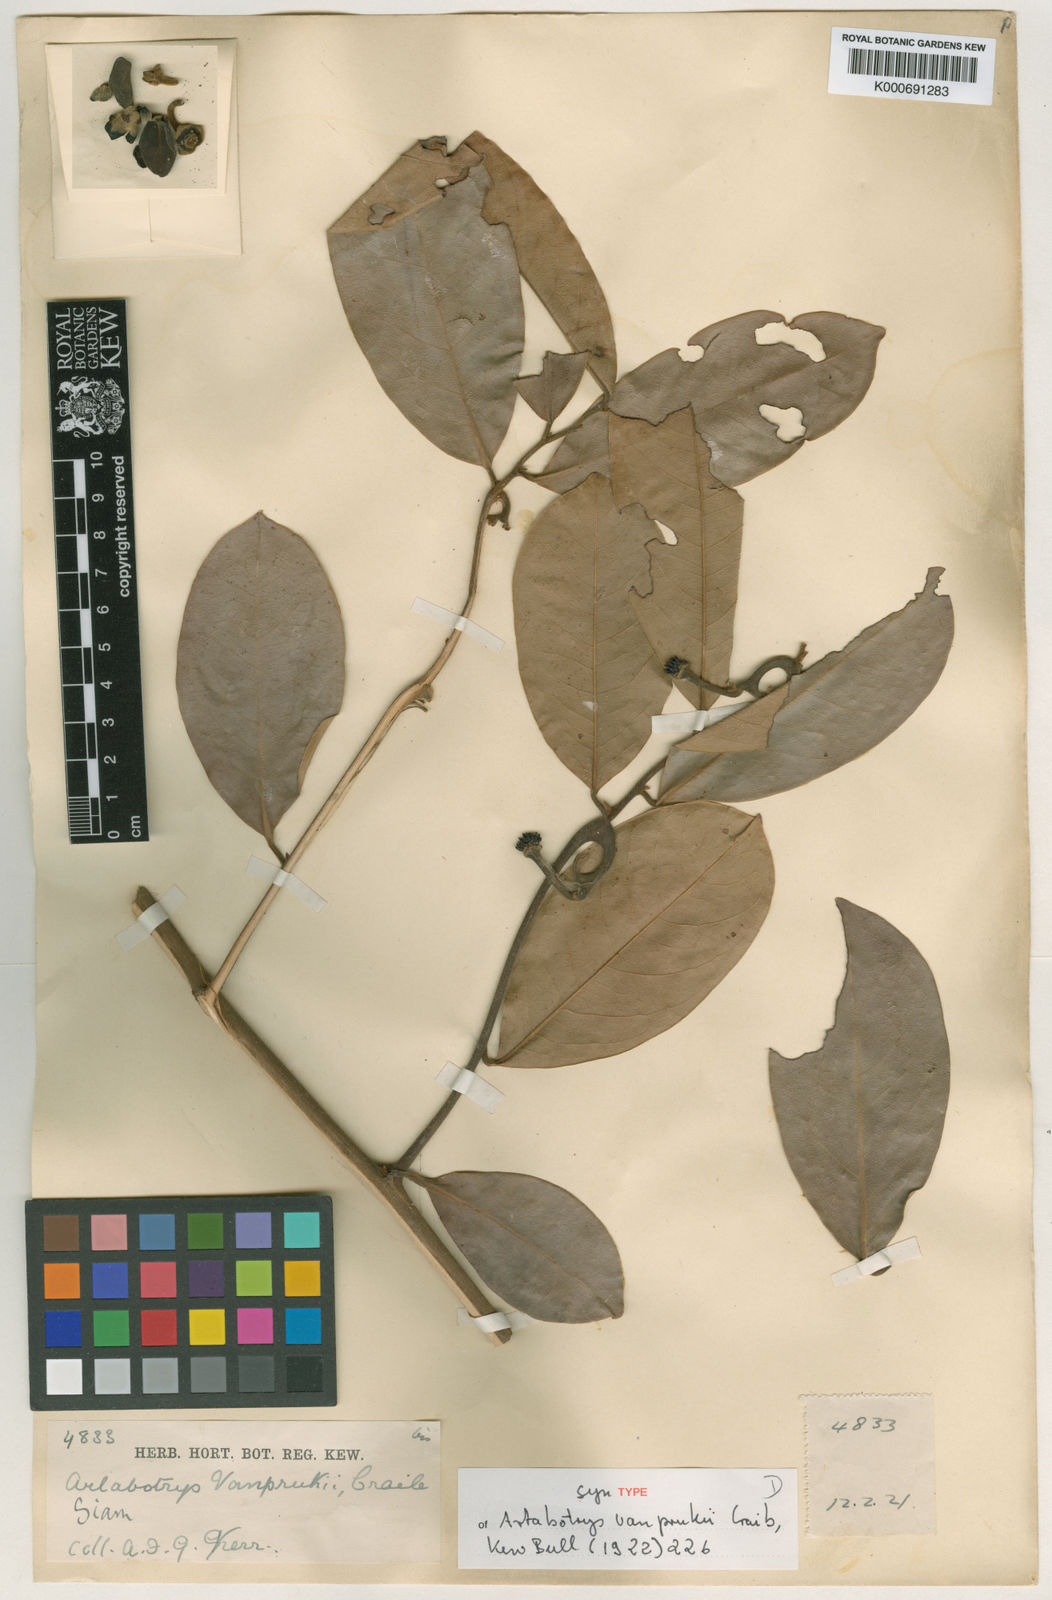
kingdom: Plantae
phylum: Tracheophyta
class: Magnoliopsida
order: Magnoliales
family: Annonaceae
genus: Artabotrys
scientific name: Artabotrys vanprukii
